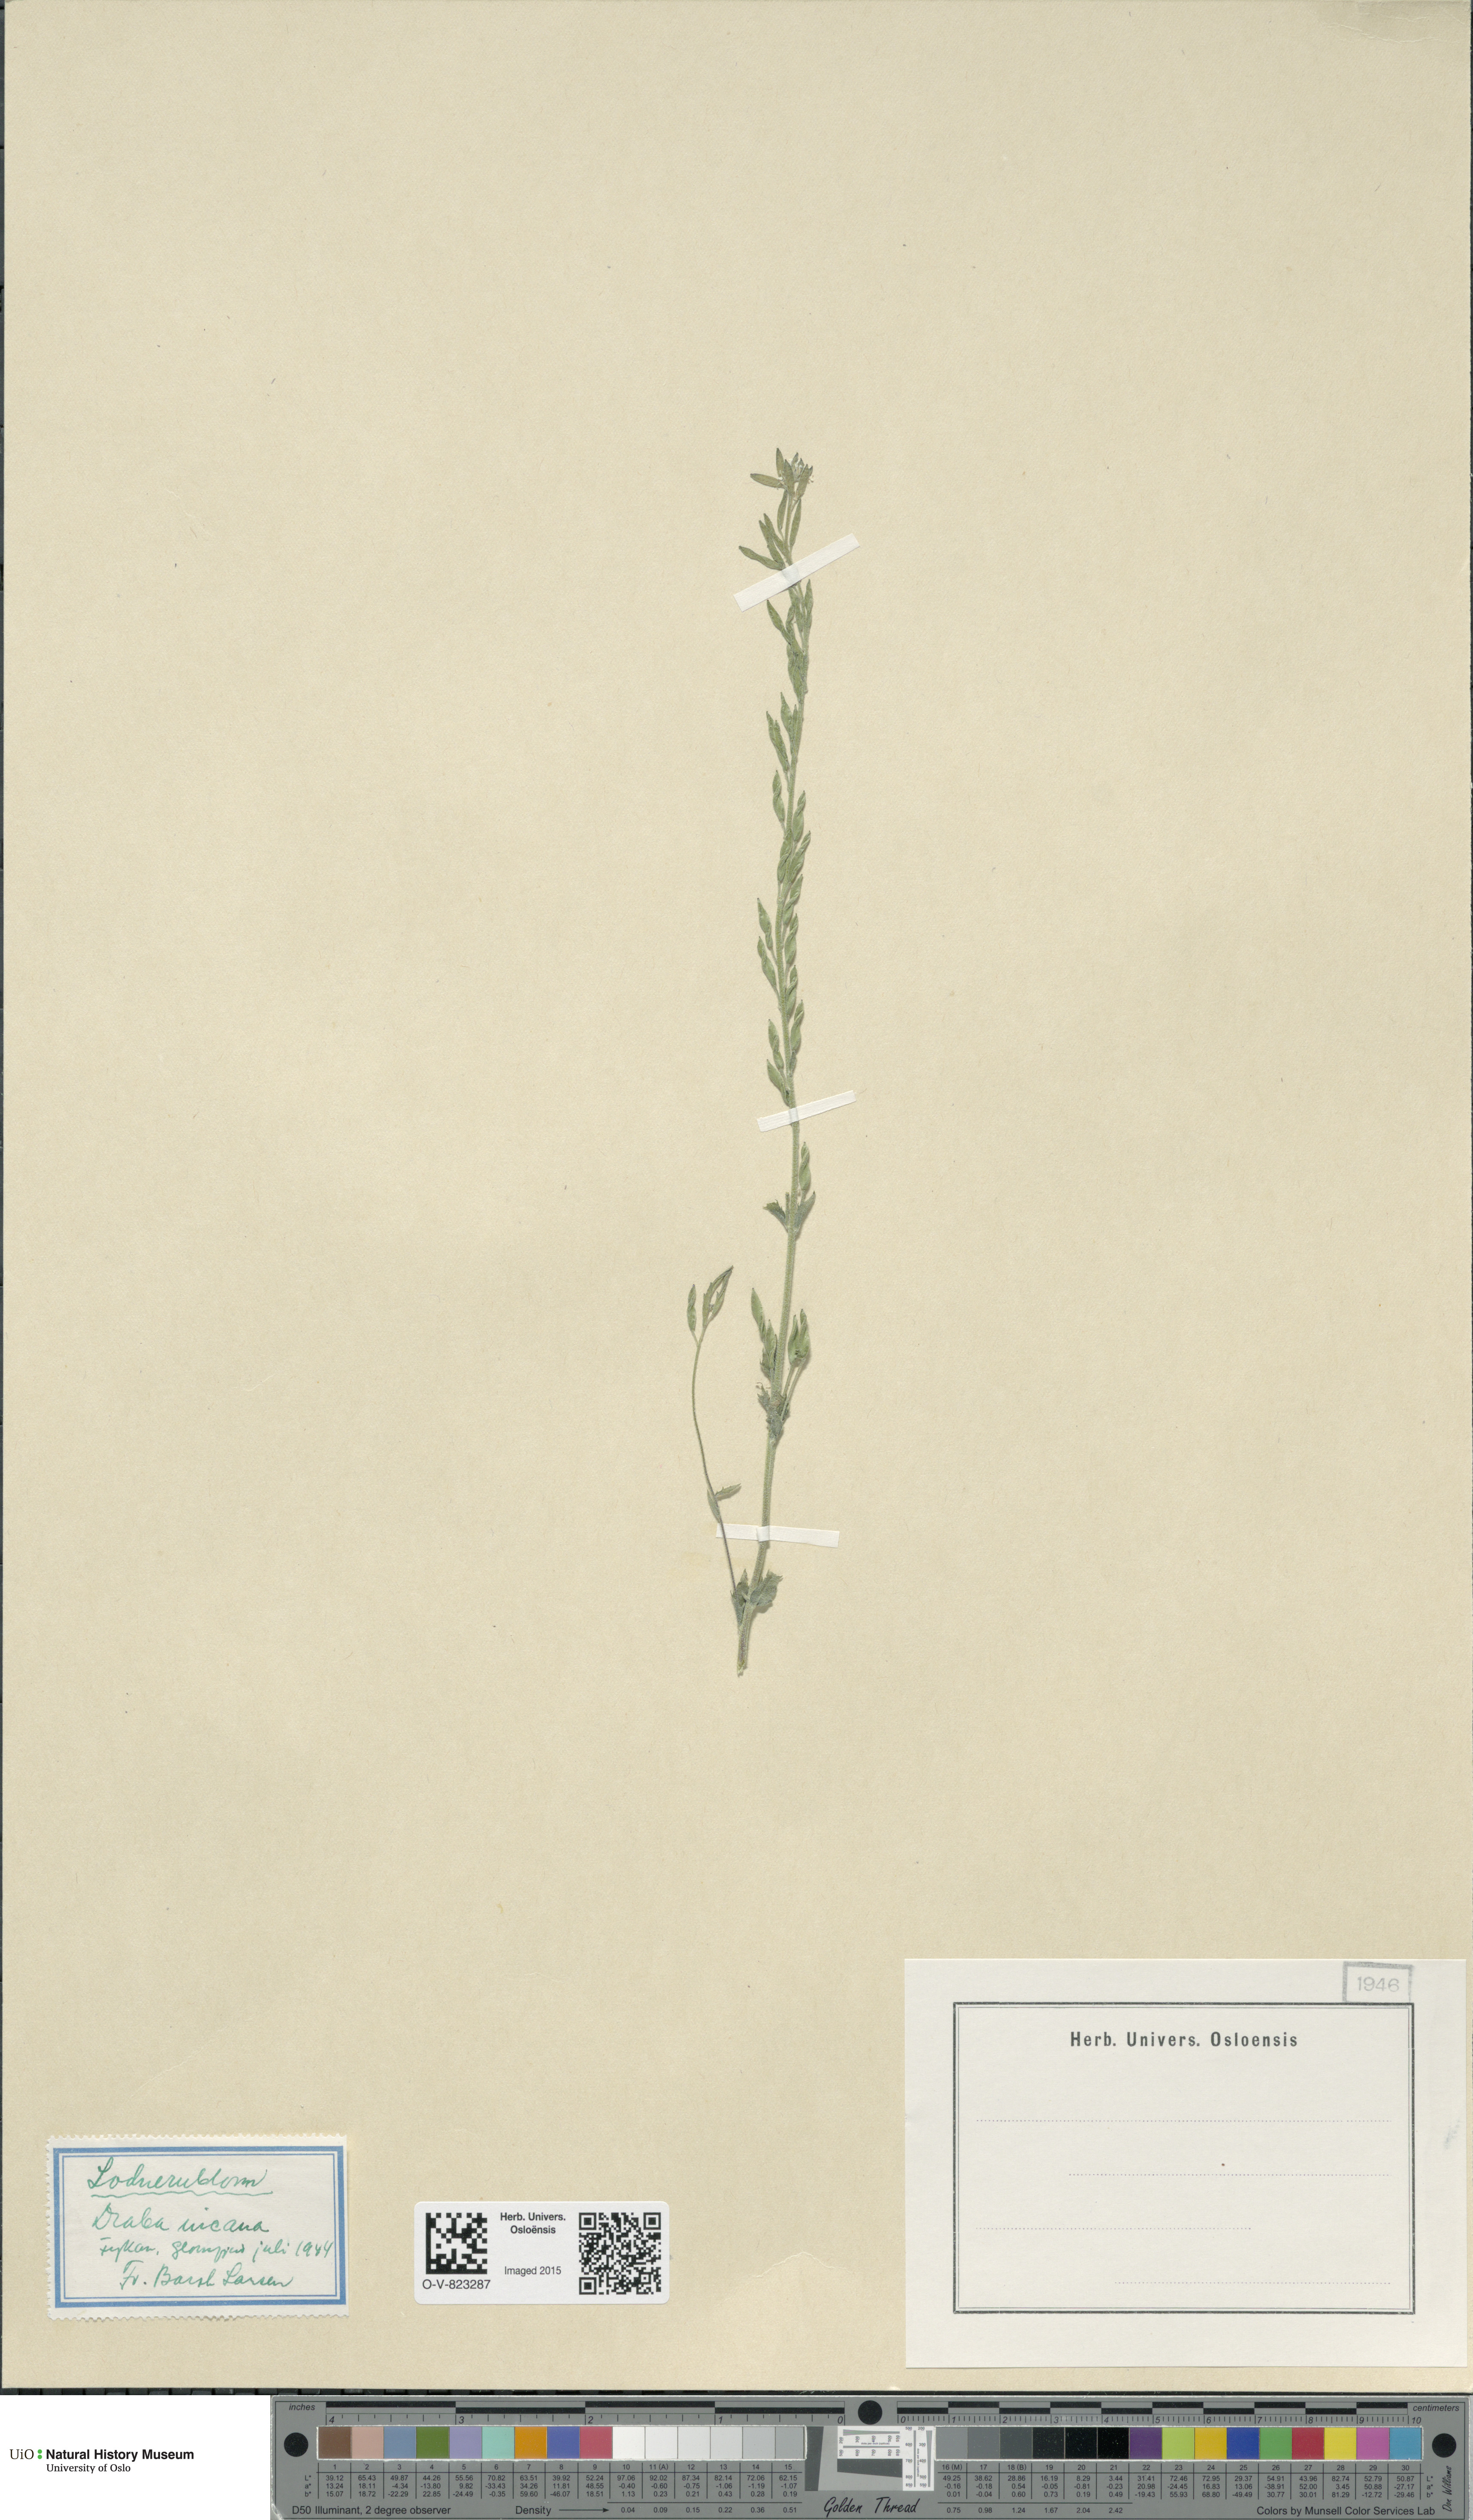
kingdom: Plantae
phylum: Tracheophyta
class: Magnoliopsida
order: Brassicales
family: Brassicaceae
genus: Draba
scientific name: Draba incana
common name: Hoary whitlow-grass
